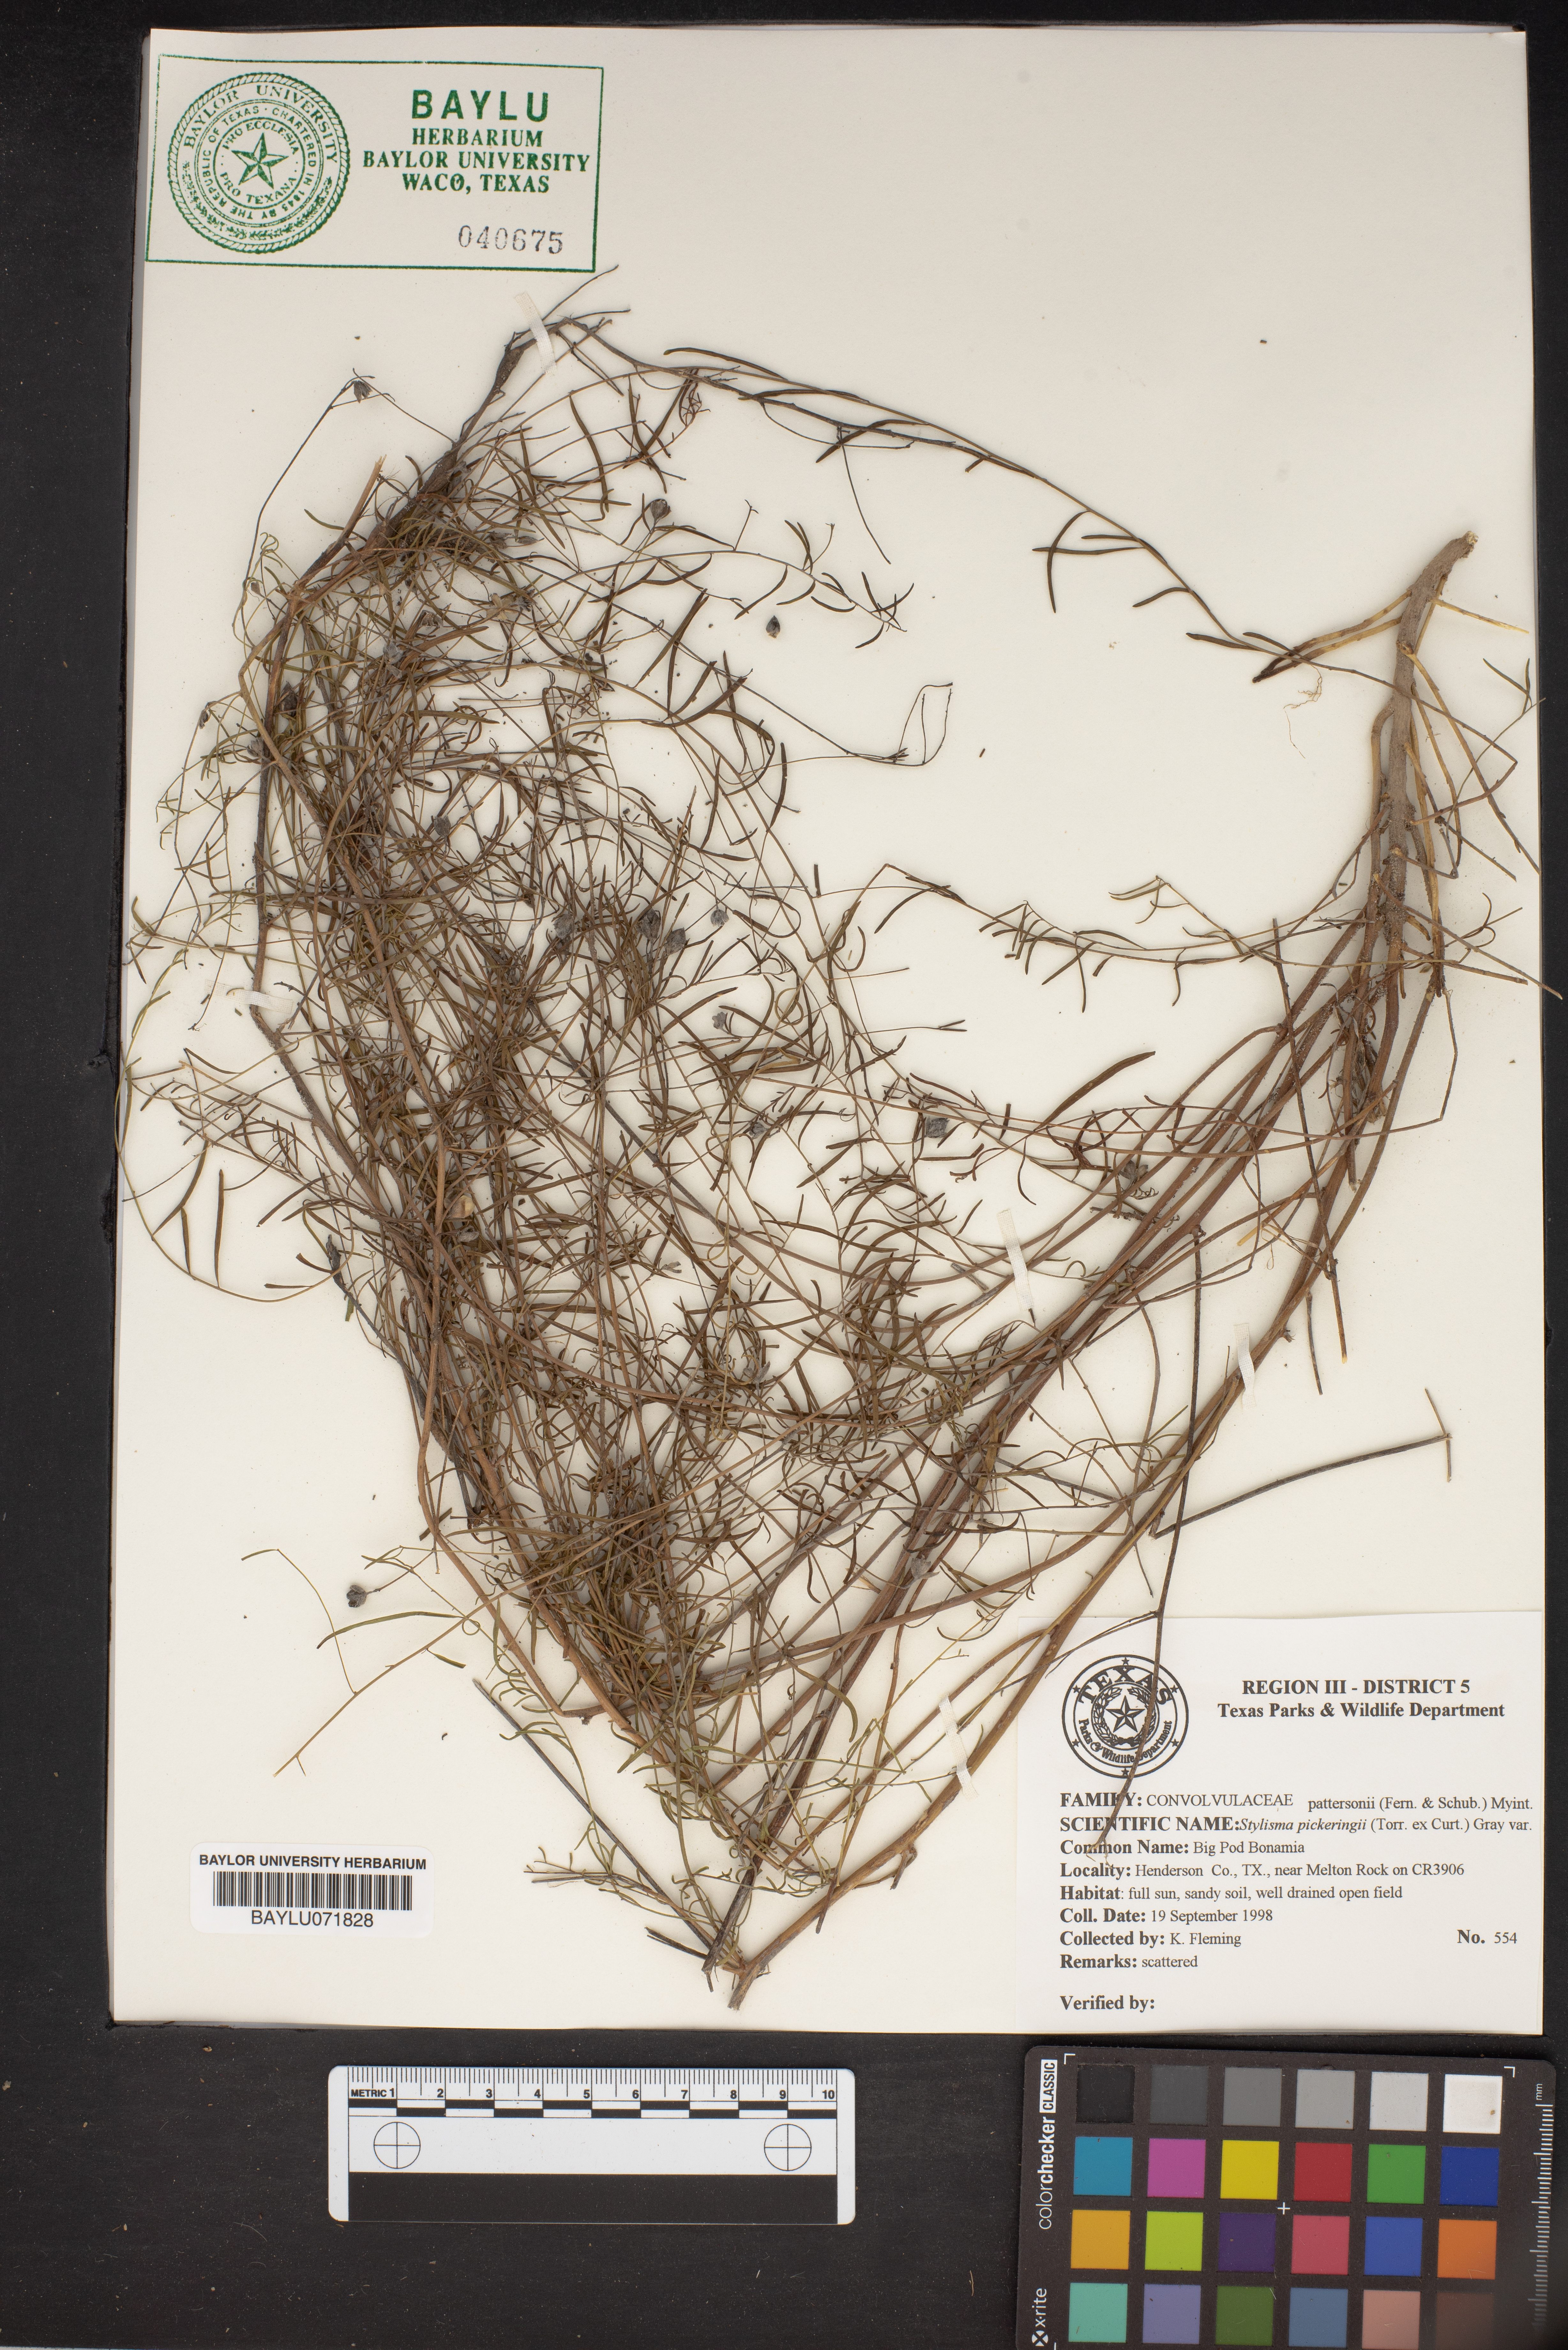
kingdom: Plantae
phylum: Tracheophyta
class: Magnoliopsida
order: Solanales
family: Convolvulaceae
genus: Stylisma
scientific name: Stylisma pickeringii
